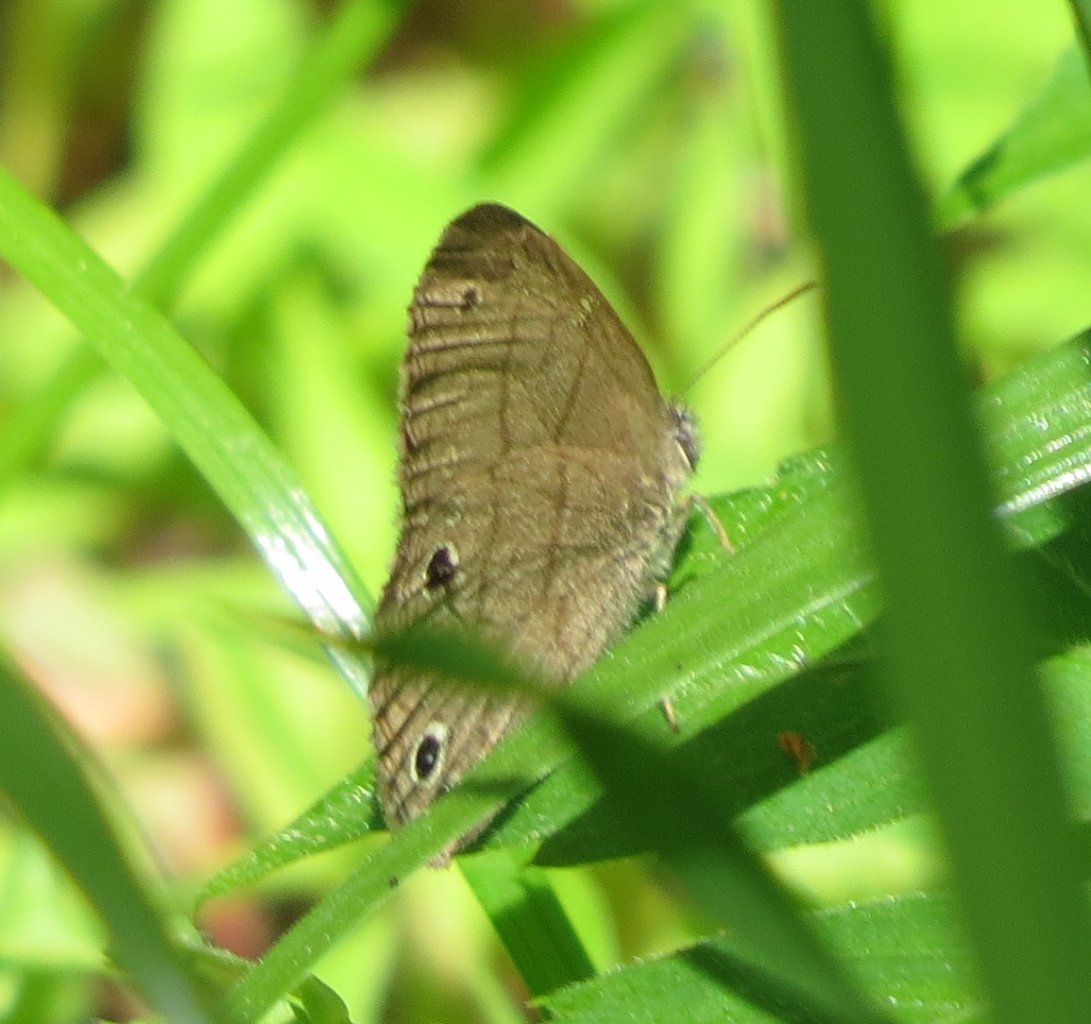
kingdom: Animalia
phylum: Arthropoda
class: Insecta
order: Lepidoptera
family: Nymphalidae
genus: Hermeuptychia
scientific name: Hermeuptychia hermes
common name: Carolina Satyr
